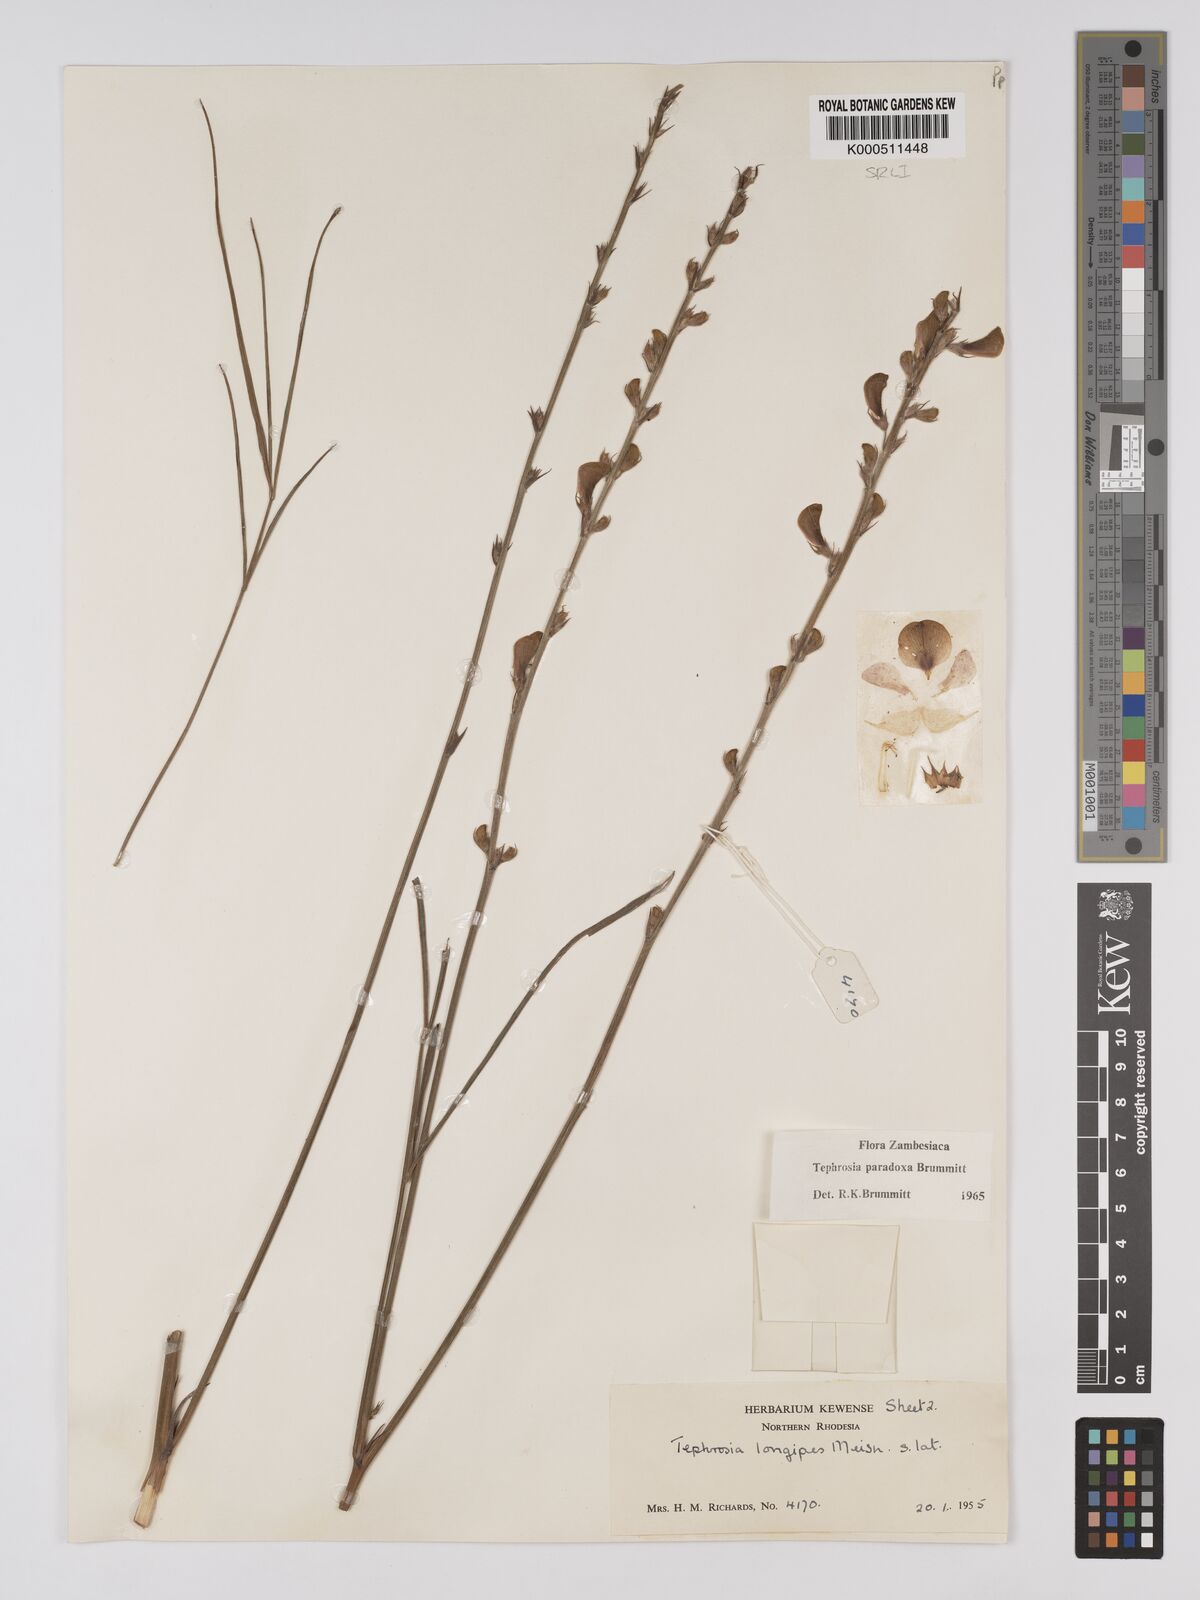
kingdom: Plantae
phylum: Tracheophyta
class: Magnoliopsida
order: Fabales
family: Fabaceae
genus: Tephrosia
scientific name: Tephrosia paradoxa
